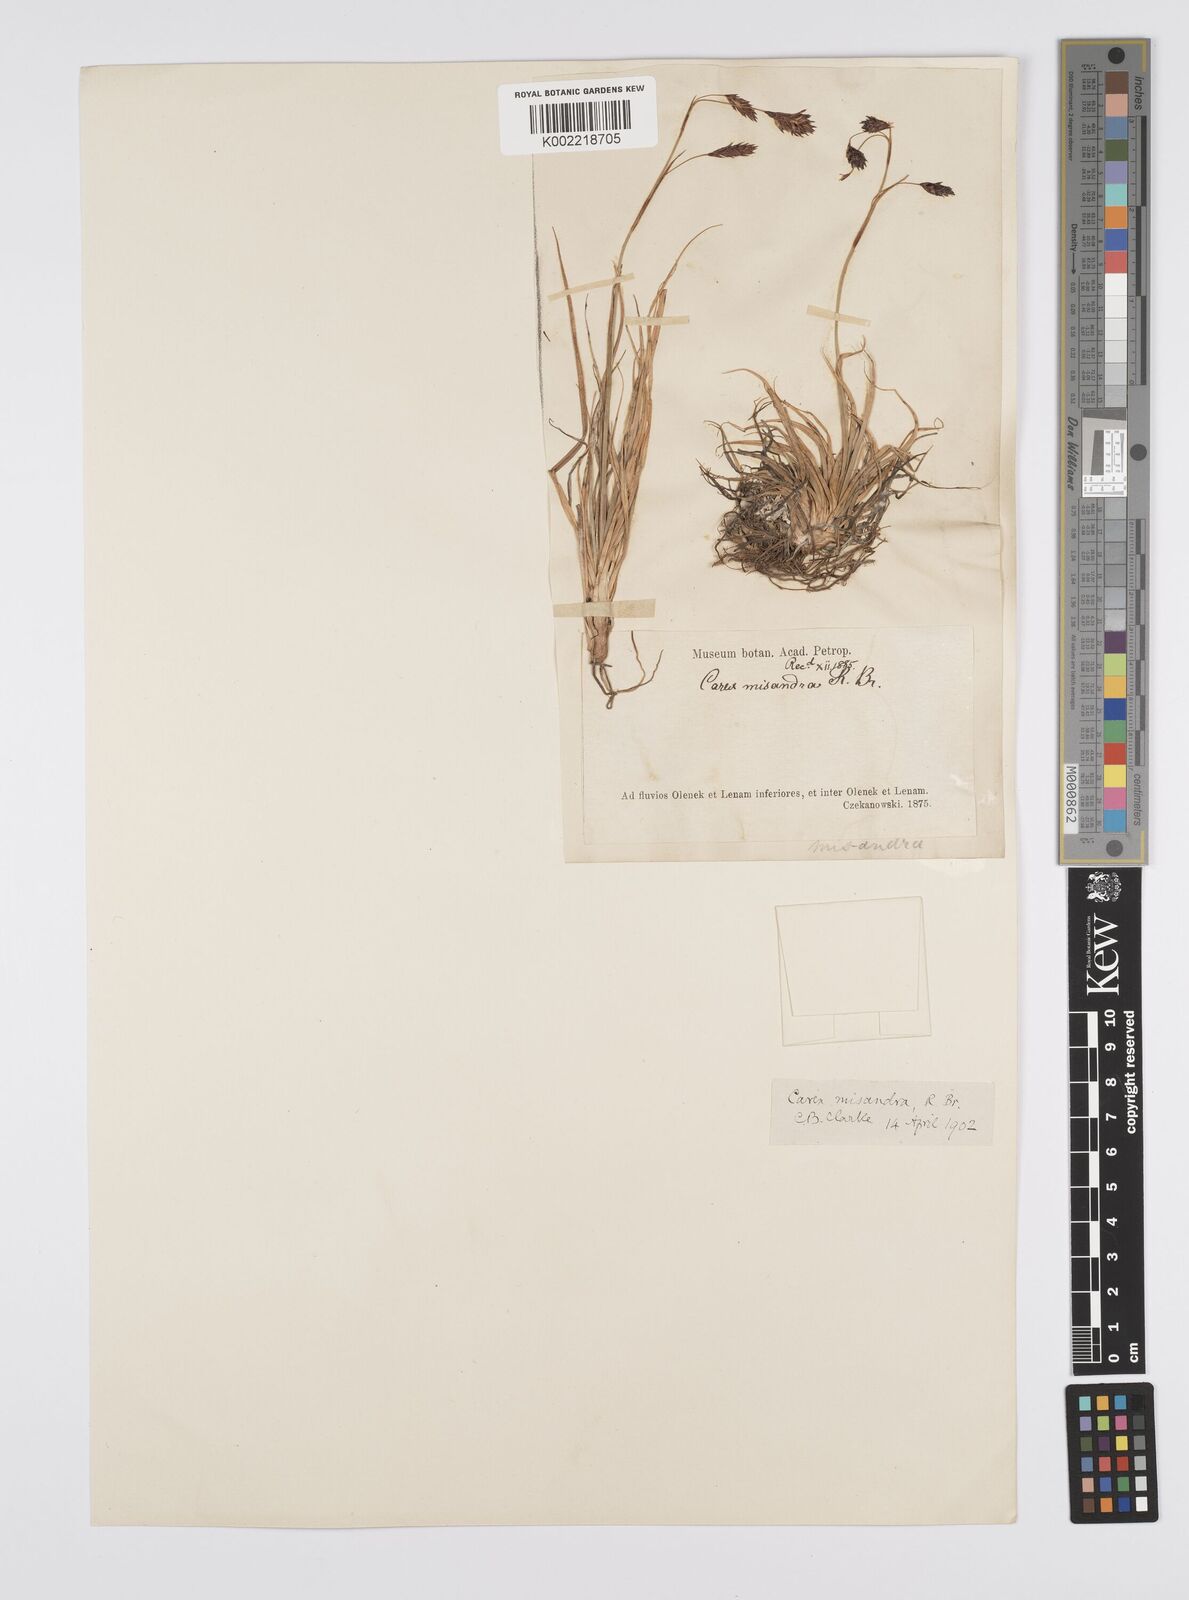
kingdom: Plantae
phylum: Tracheophyta
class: Liliopsida
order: Poales
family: Cyperaceae
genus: Carex
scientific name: Carex fuliginosa
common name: Few-flowered sedge
